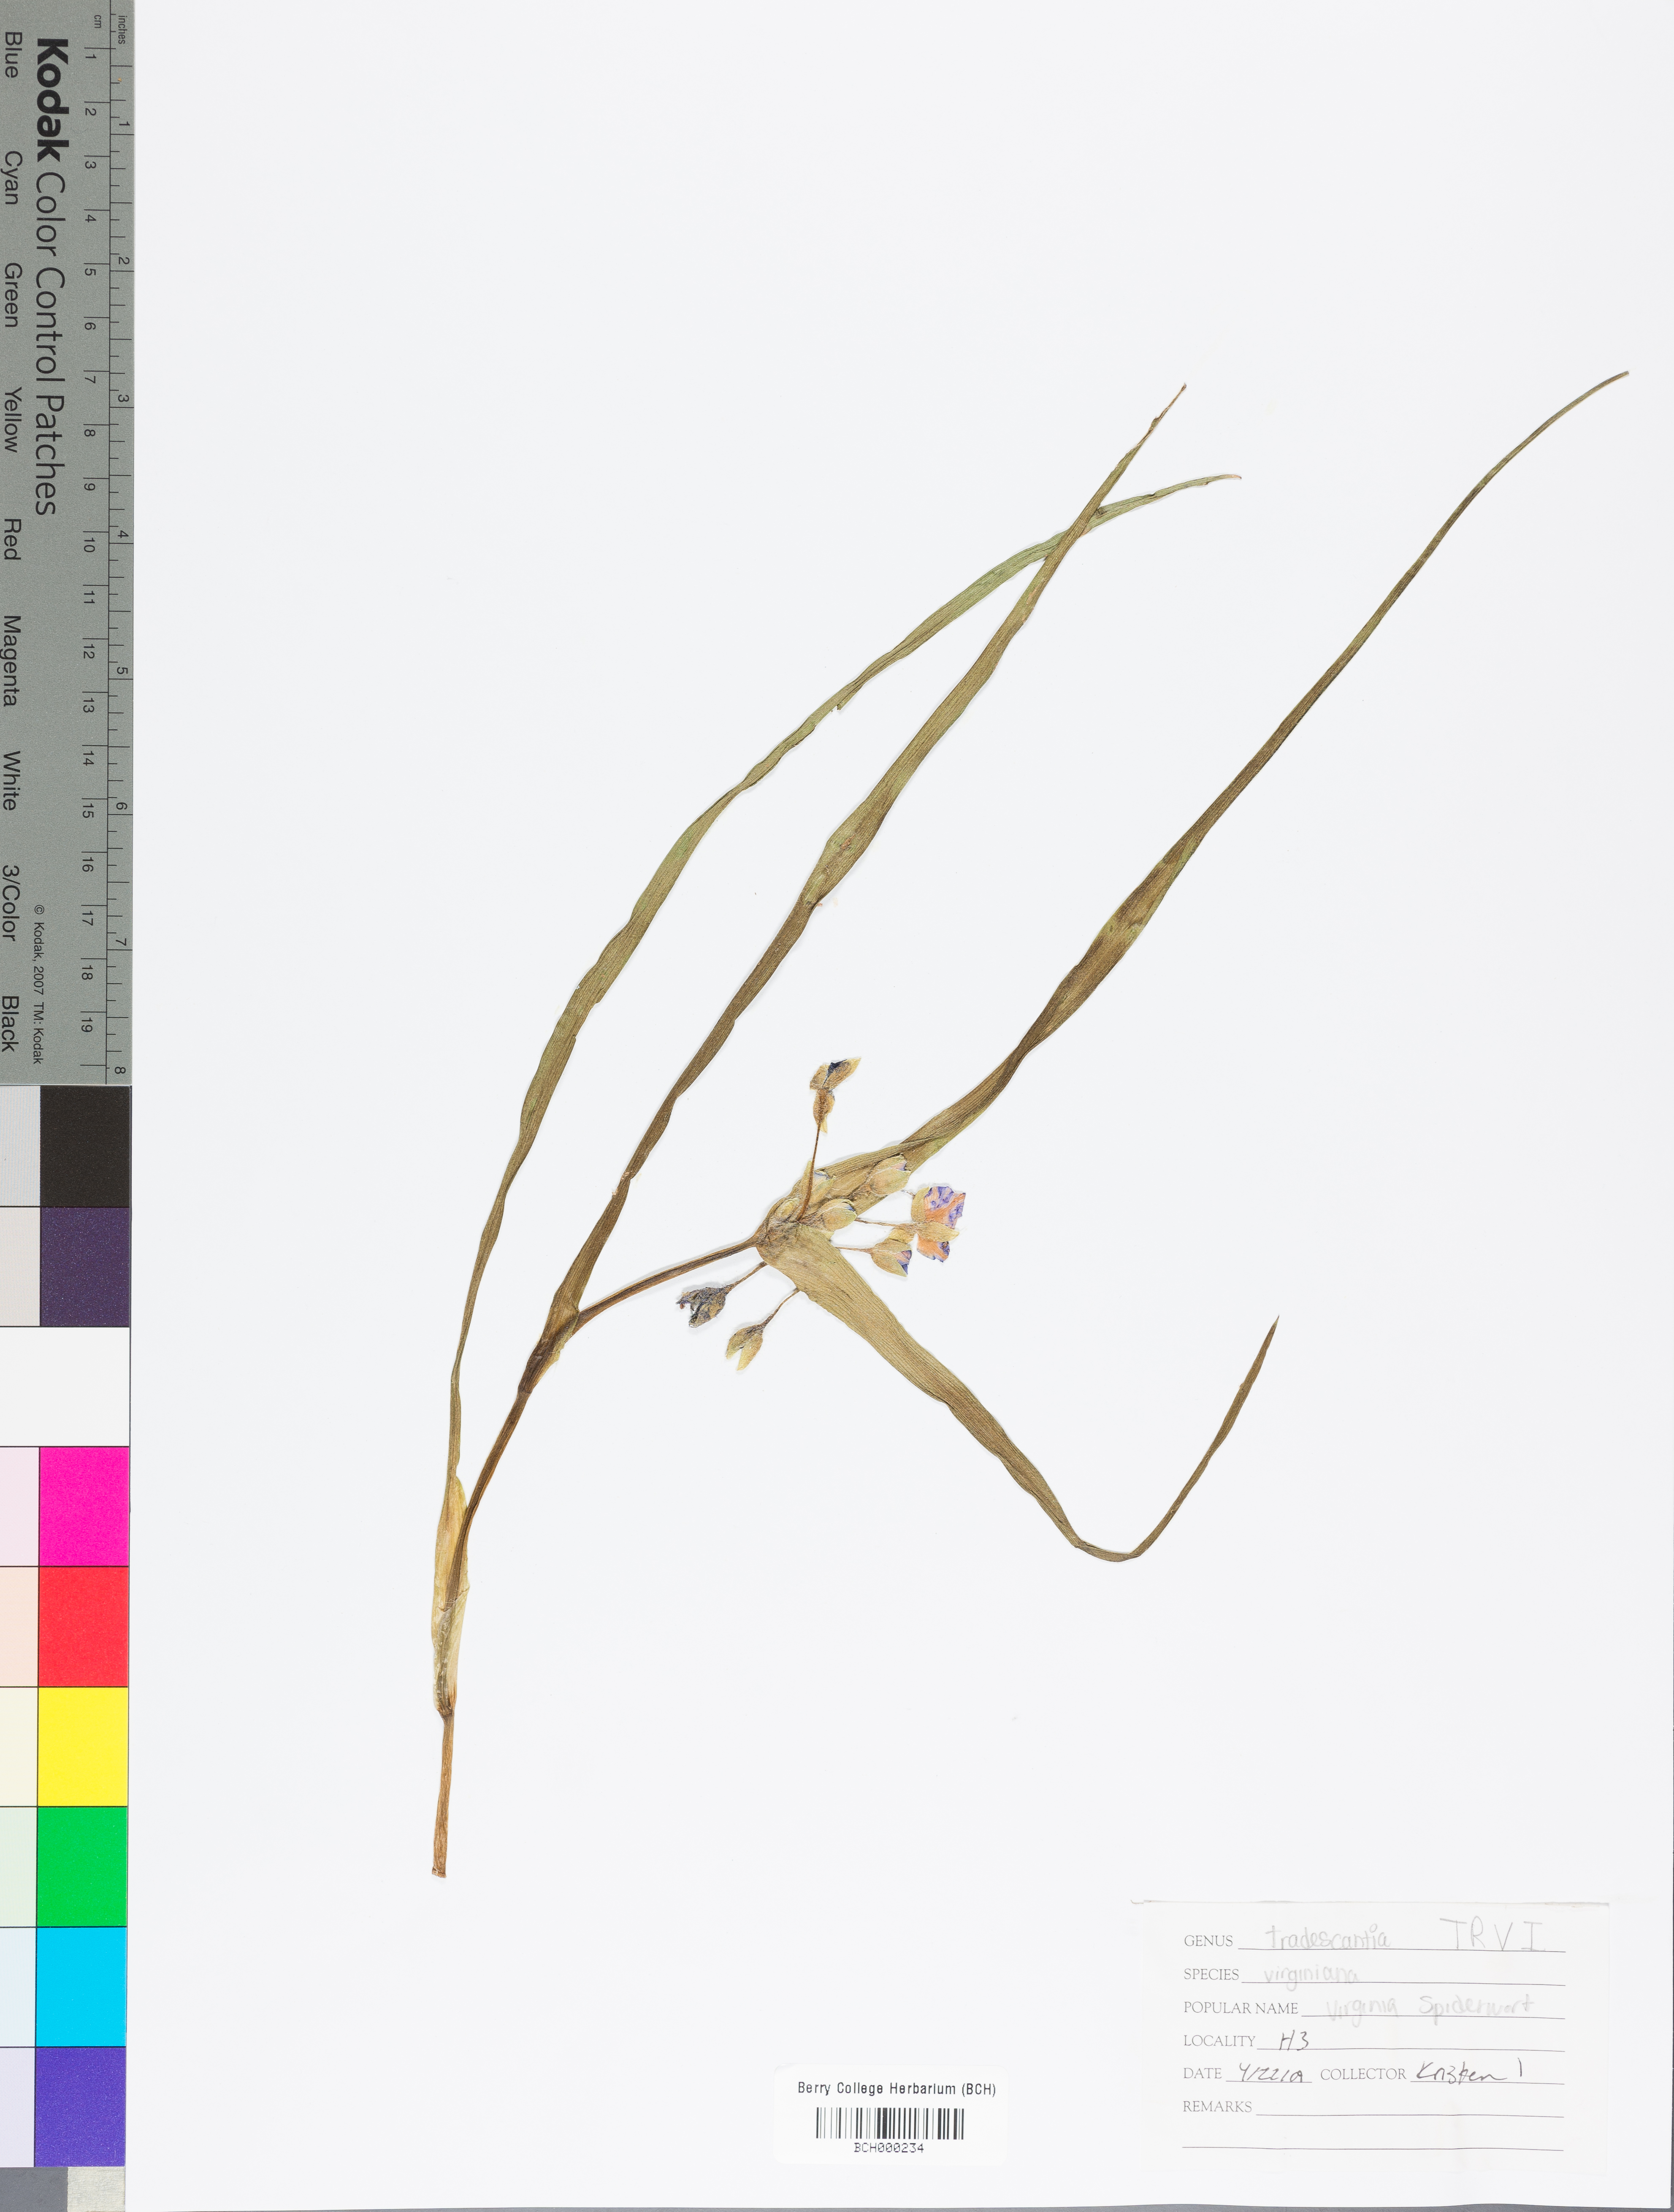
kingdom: Plantae
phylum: Tracheophyta
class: Liliopsida
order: Commelinales
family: Commelinaceae
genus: Tradescantia
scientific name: Tradescantia virginiana
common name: Spiderwort
